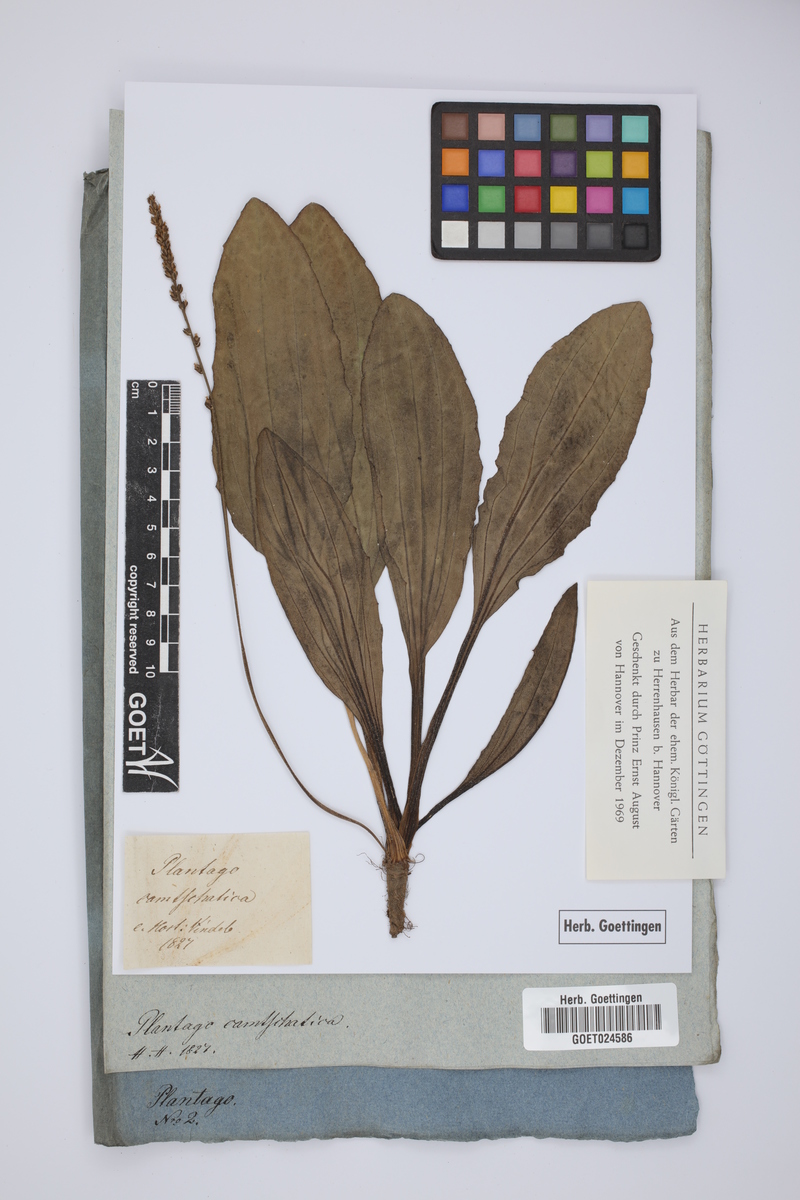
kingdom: Plantae
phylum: Tracheophyta
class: Magnoliopsida
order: Lamiales
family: Plantaginaceae
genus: Plantago
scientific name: Plantago camtschatica
